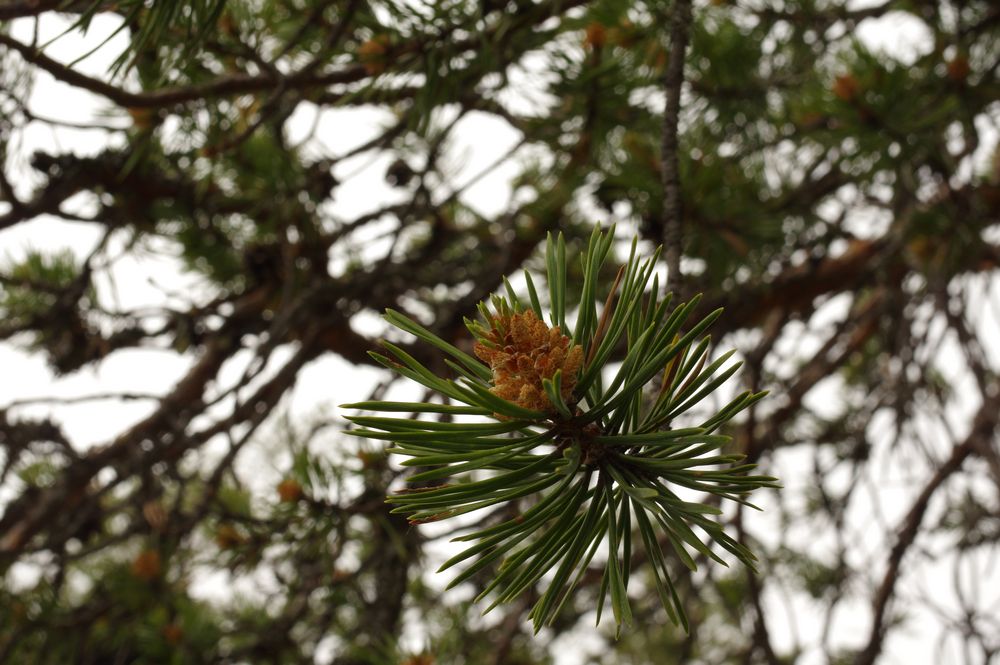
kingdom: Plantae
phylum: Tracheophyta
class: Pinopsida
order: Pinales
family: Pinaceae
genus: Pinus
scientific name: Pinus sylvestris
